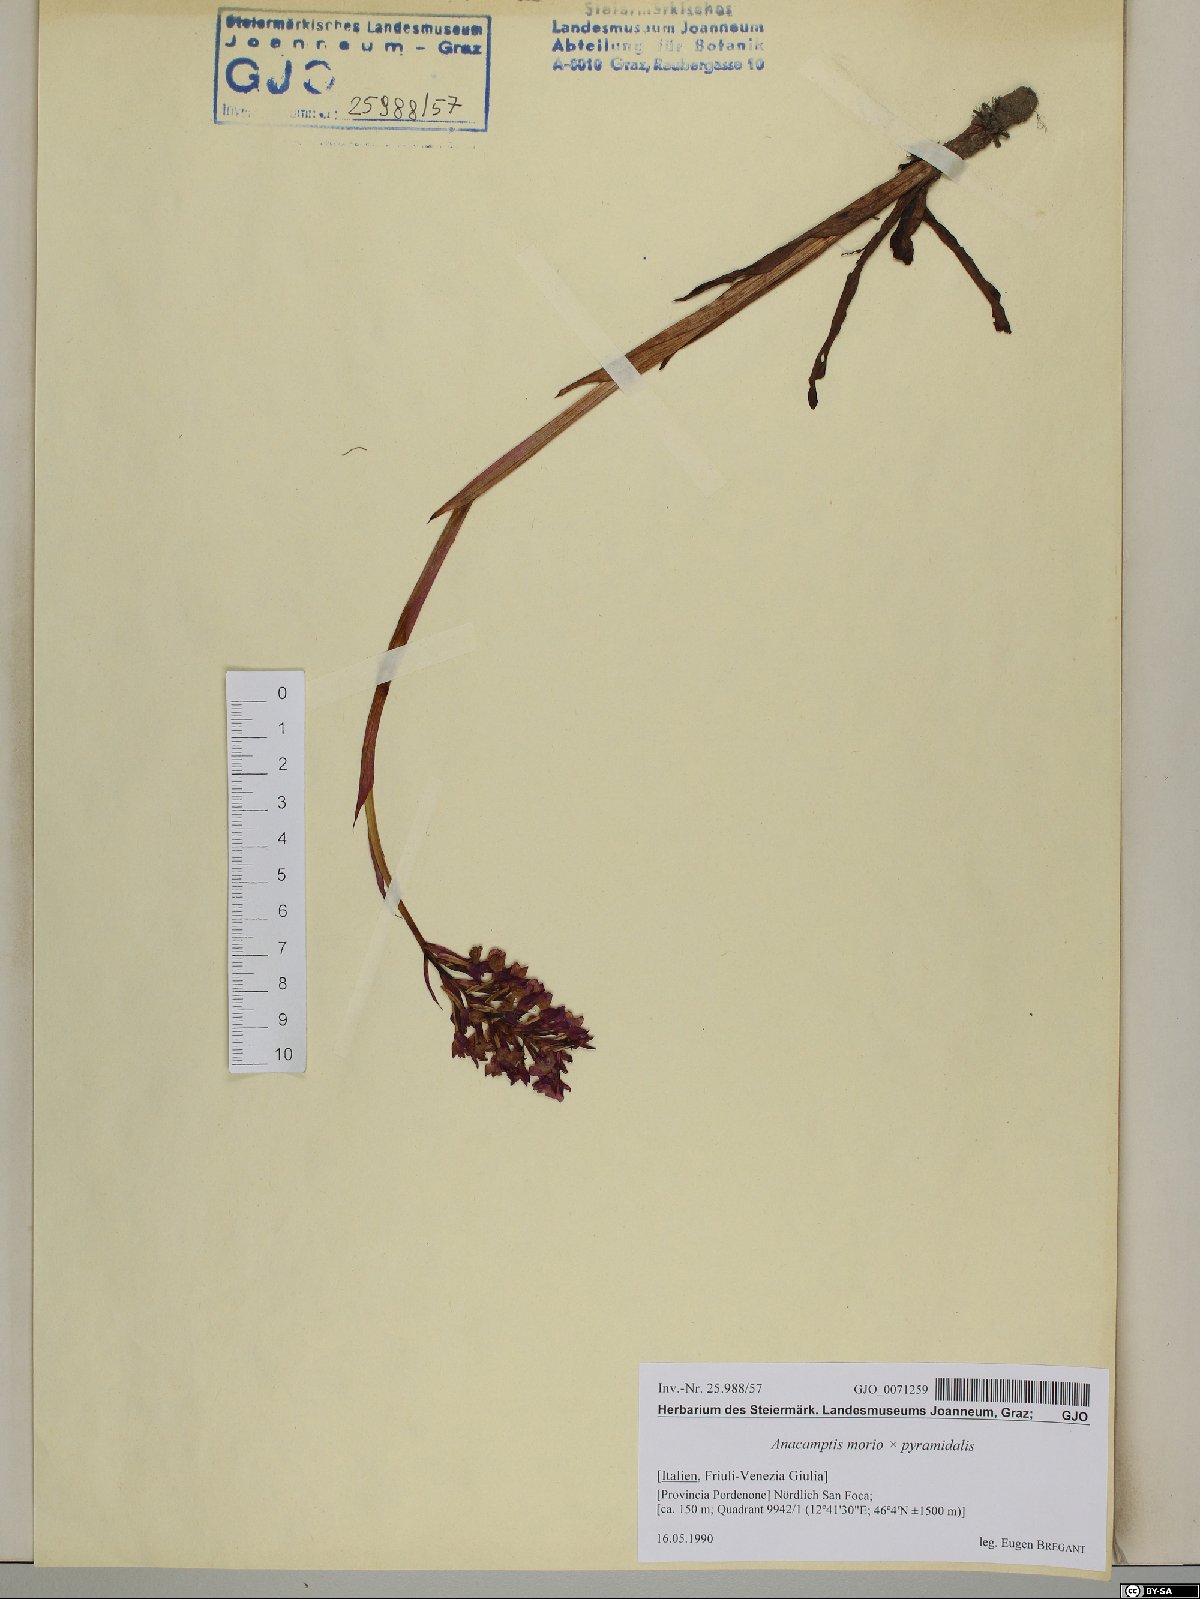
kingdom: Plantae
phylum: Tracheophyta
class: Liliopsida
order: Asparagales
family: Orchidaceae
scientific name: Orchidaceae
